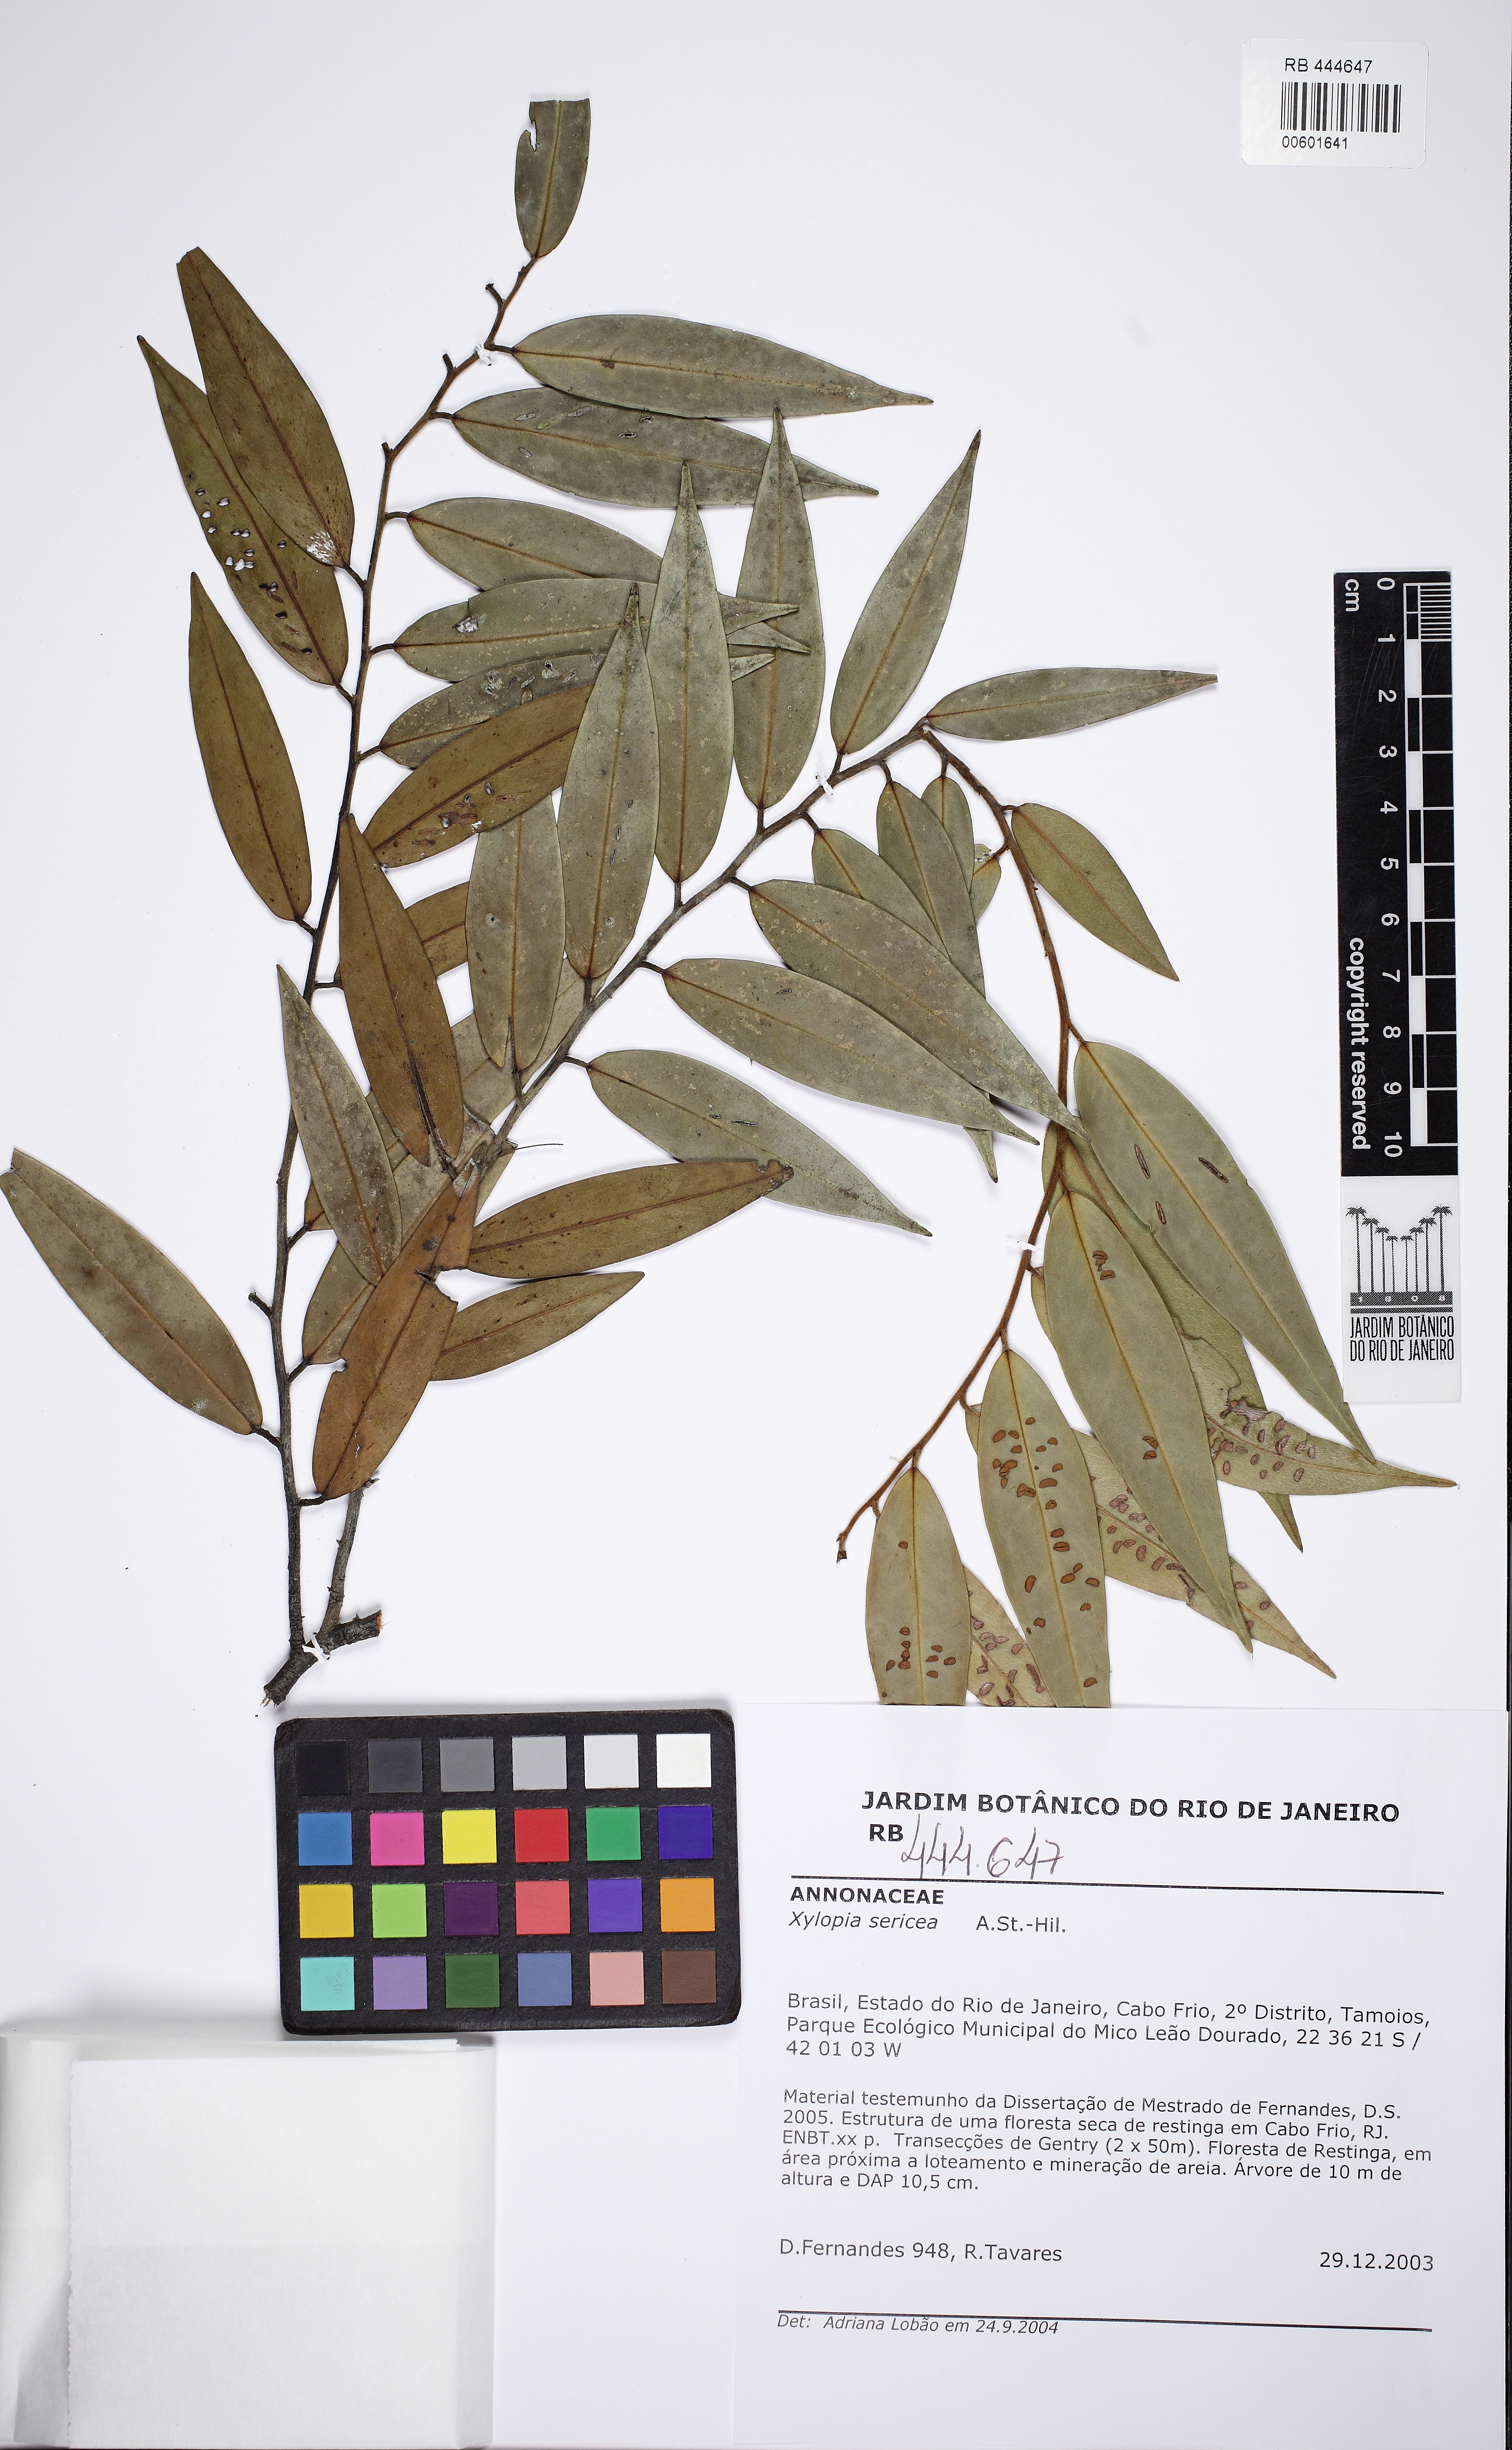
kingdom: Plantae
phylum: Tracheophyta
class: Magnoliopsida
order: Magnoliales
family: Annonaceae
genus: Xylopia
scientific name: Xylopia sericea
